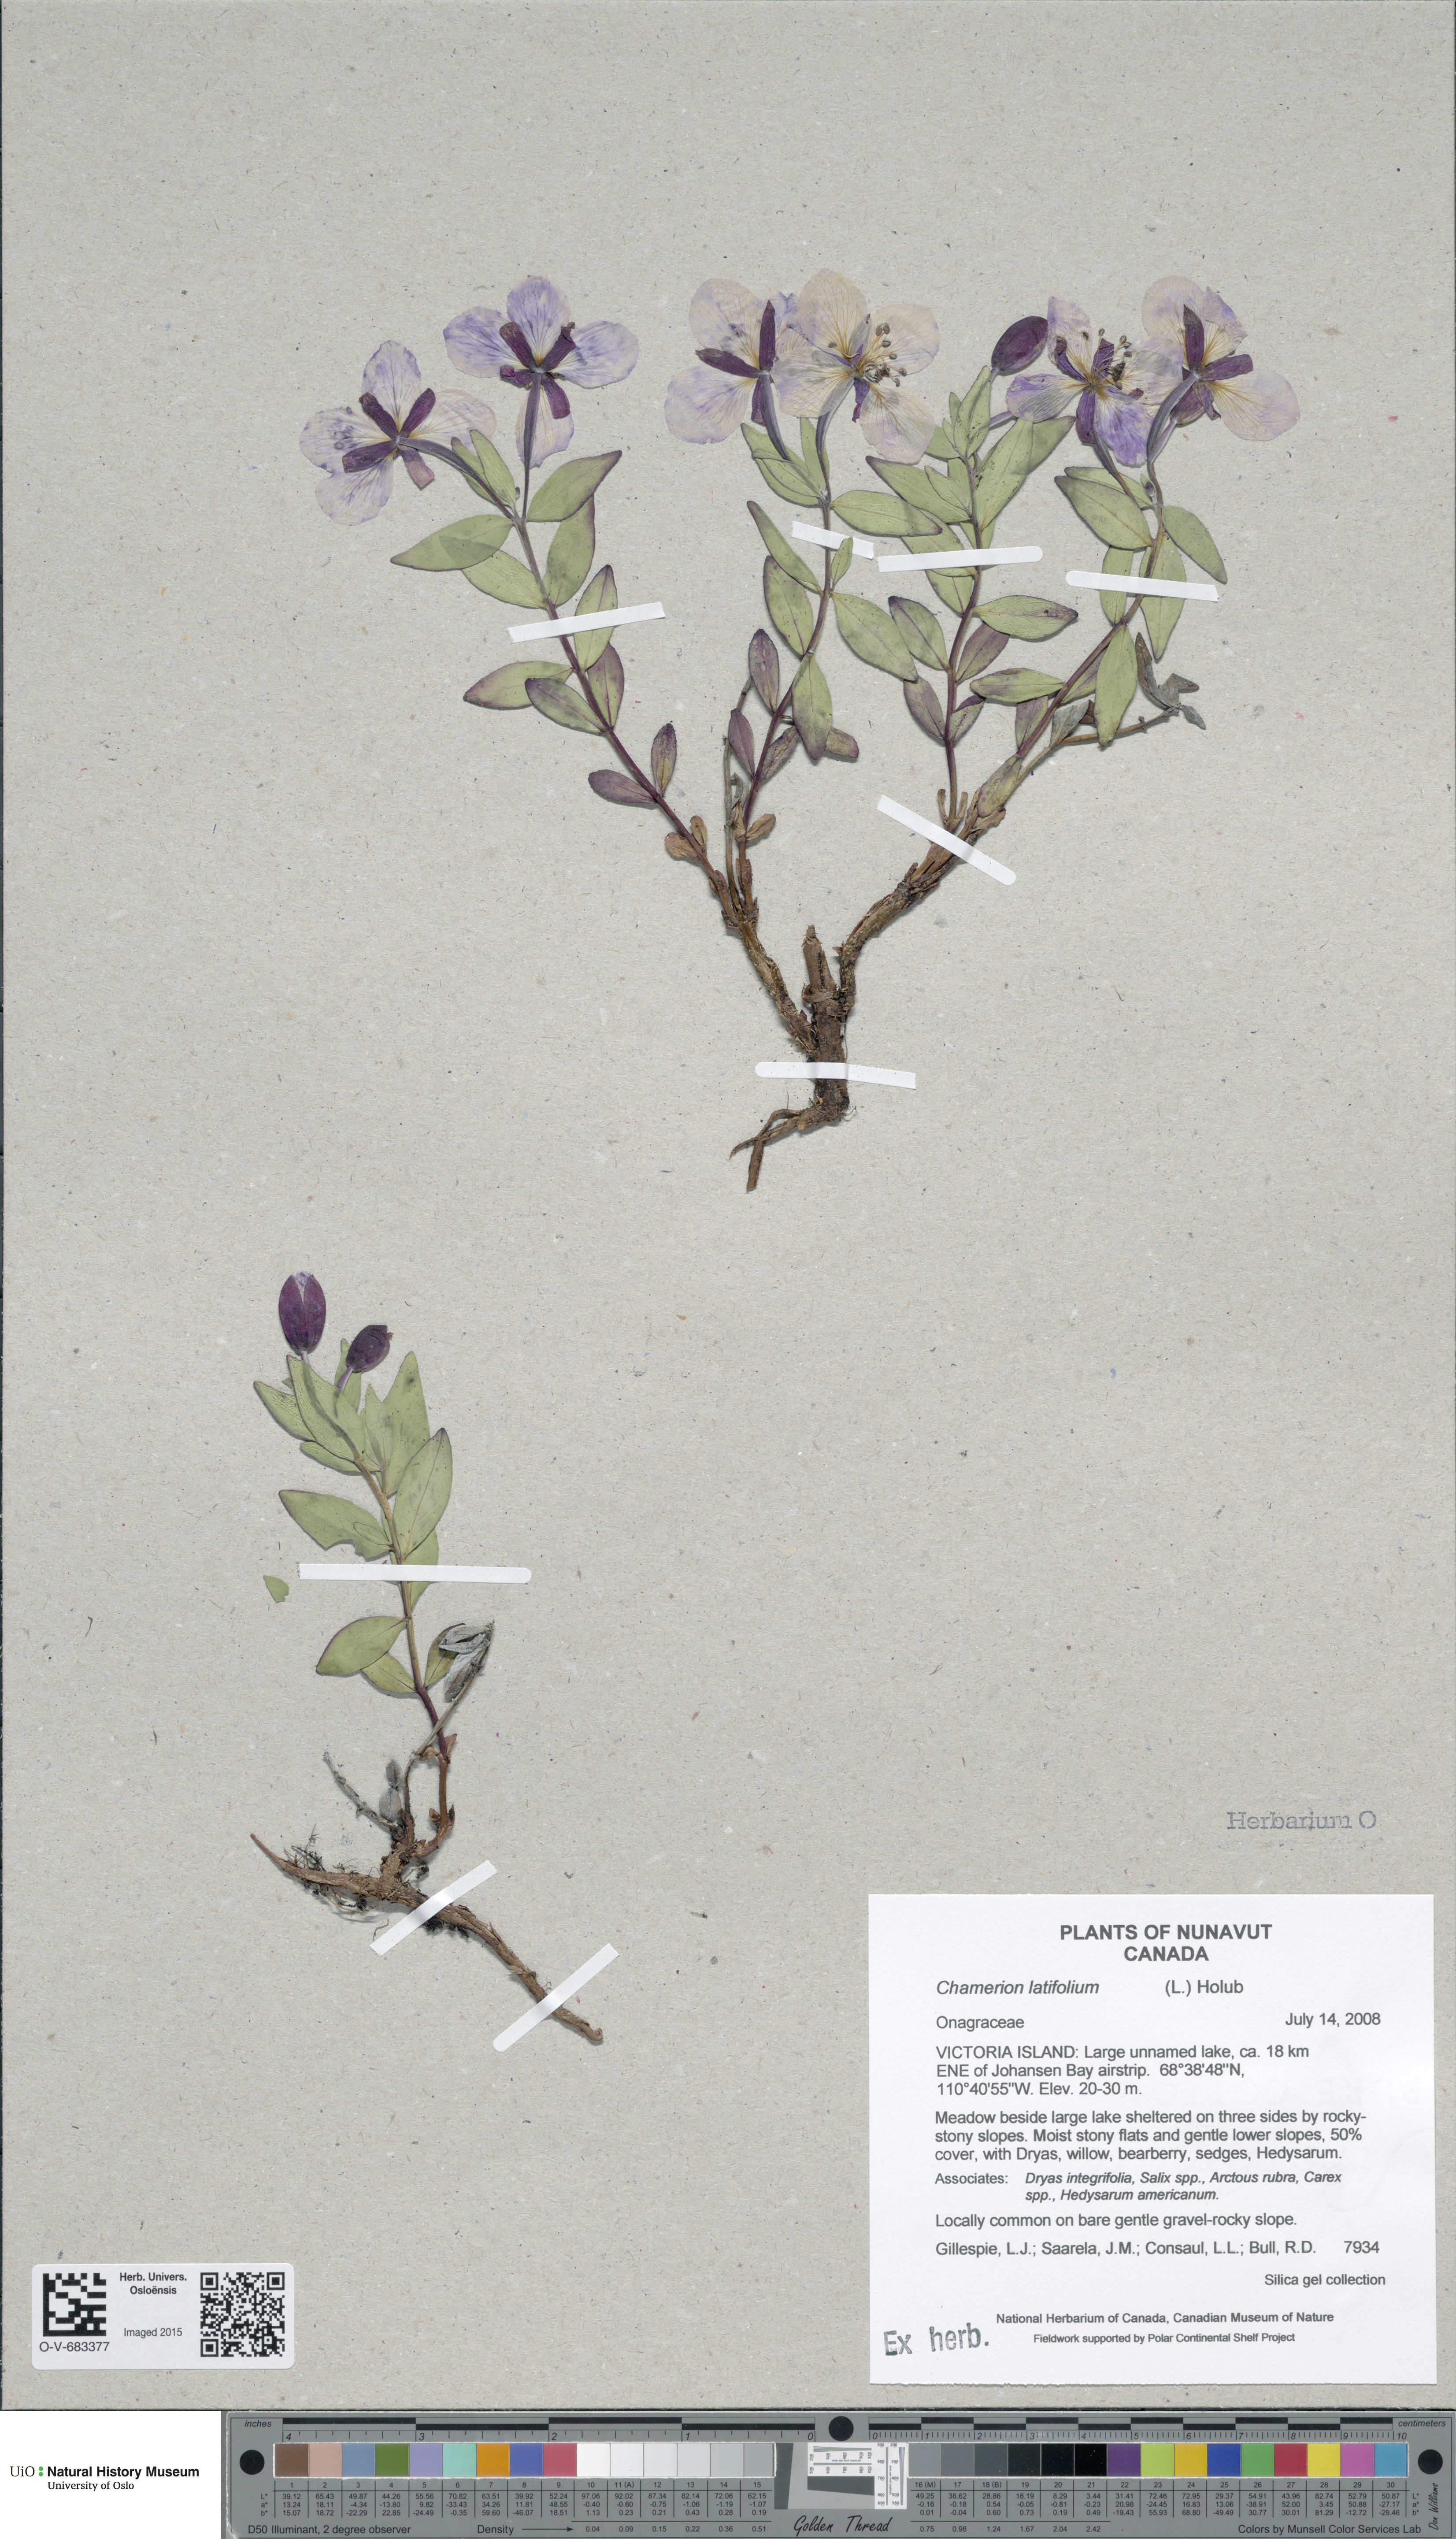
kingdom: Plantae
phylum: Tracheophyta
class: Magnoliopsida
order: Myrtales
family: Onagraceae
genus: Chamaenerion
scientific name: Chamaenerion latifolium
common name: Dwarf fireweed
